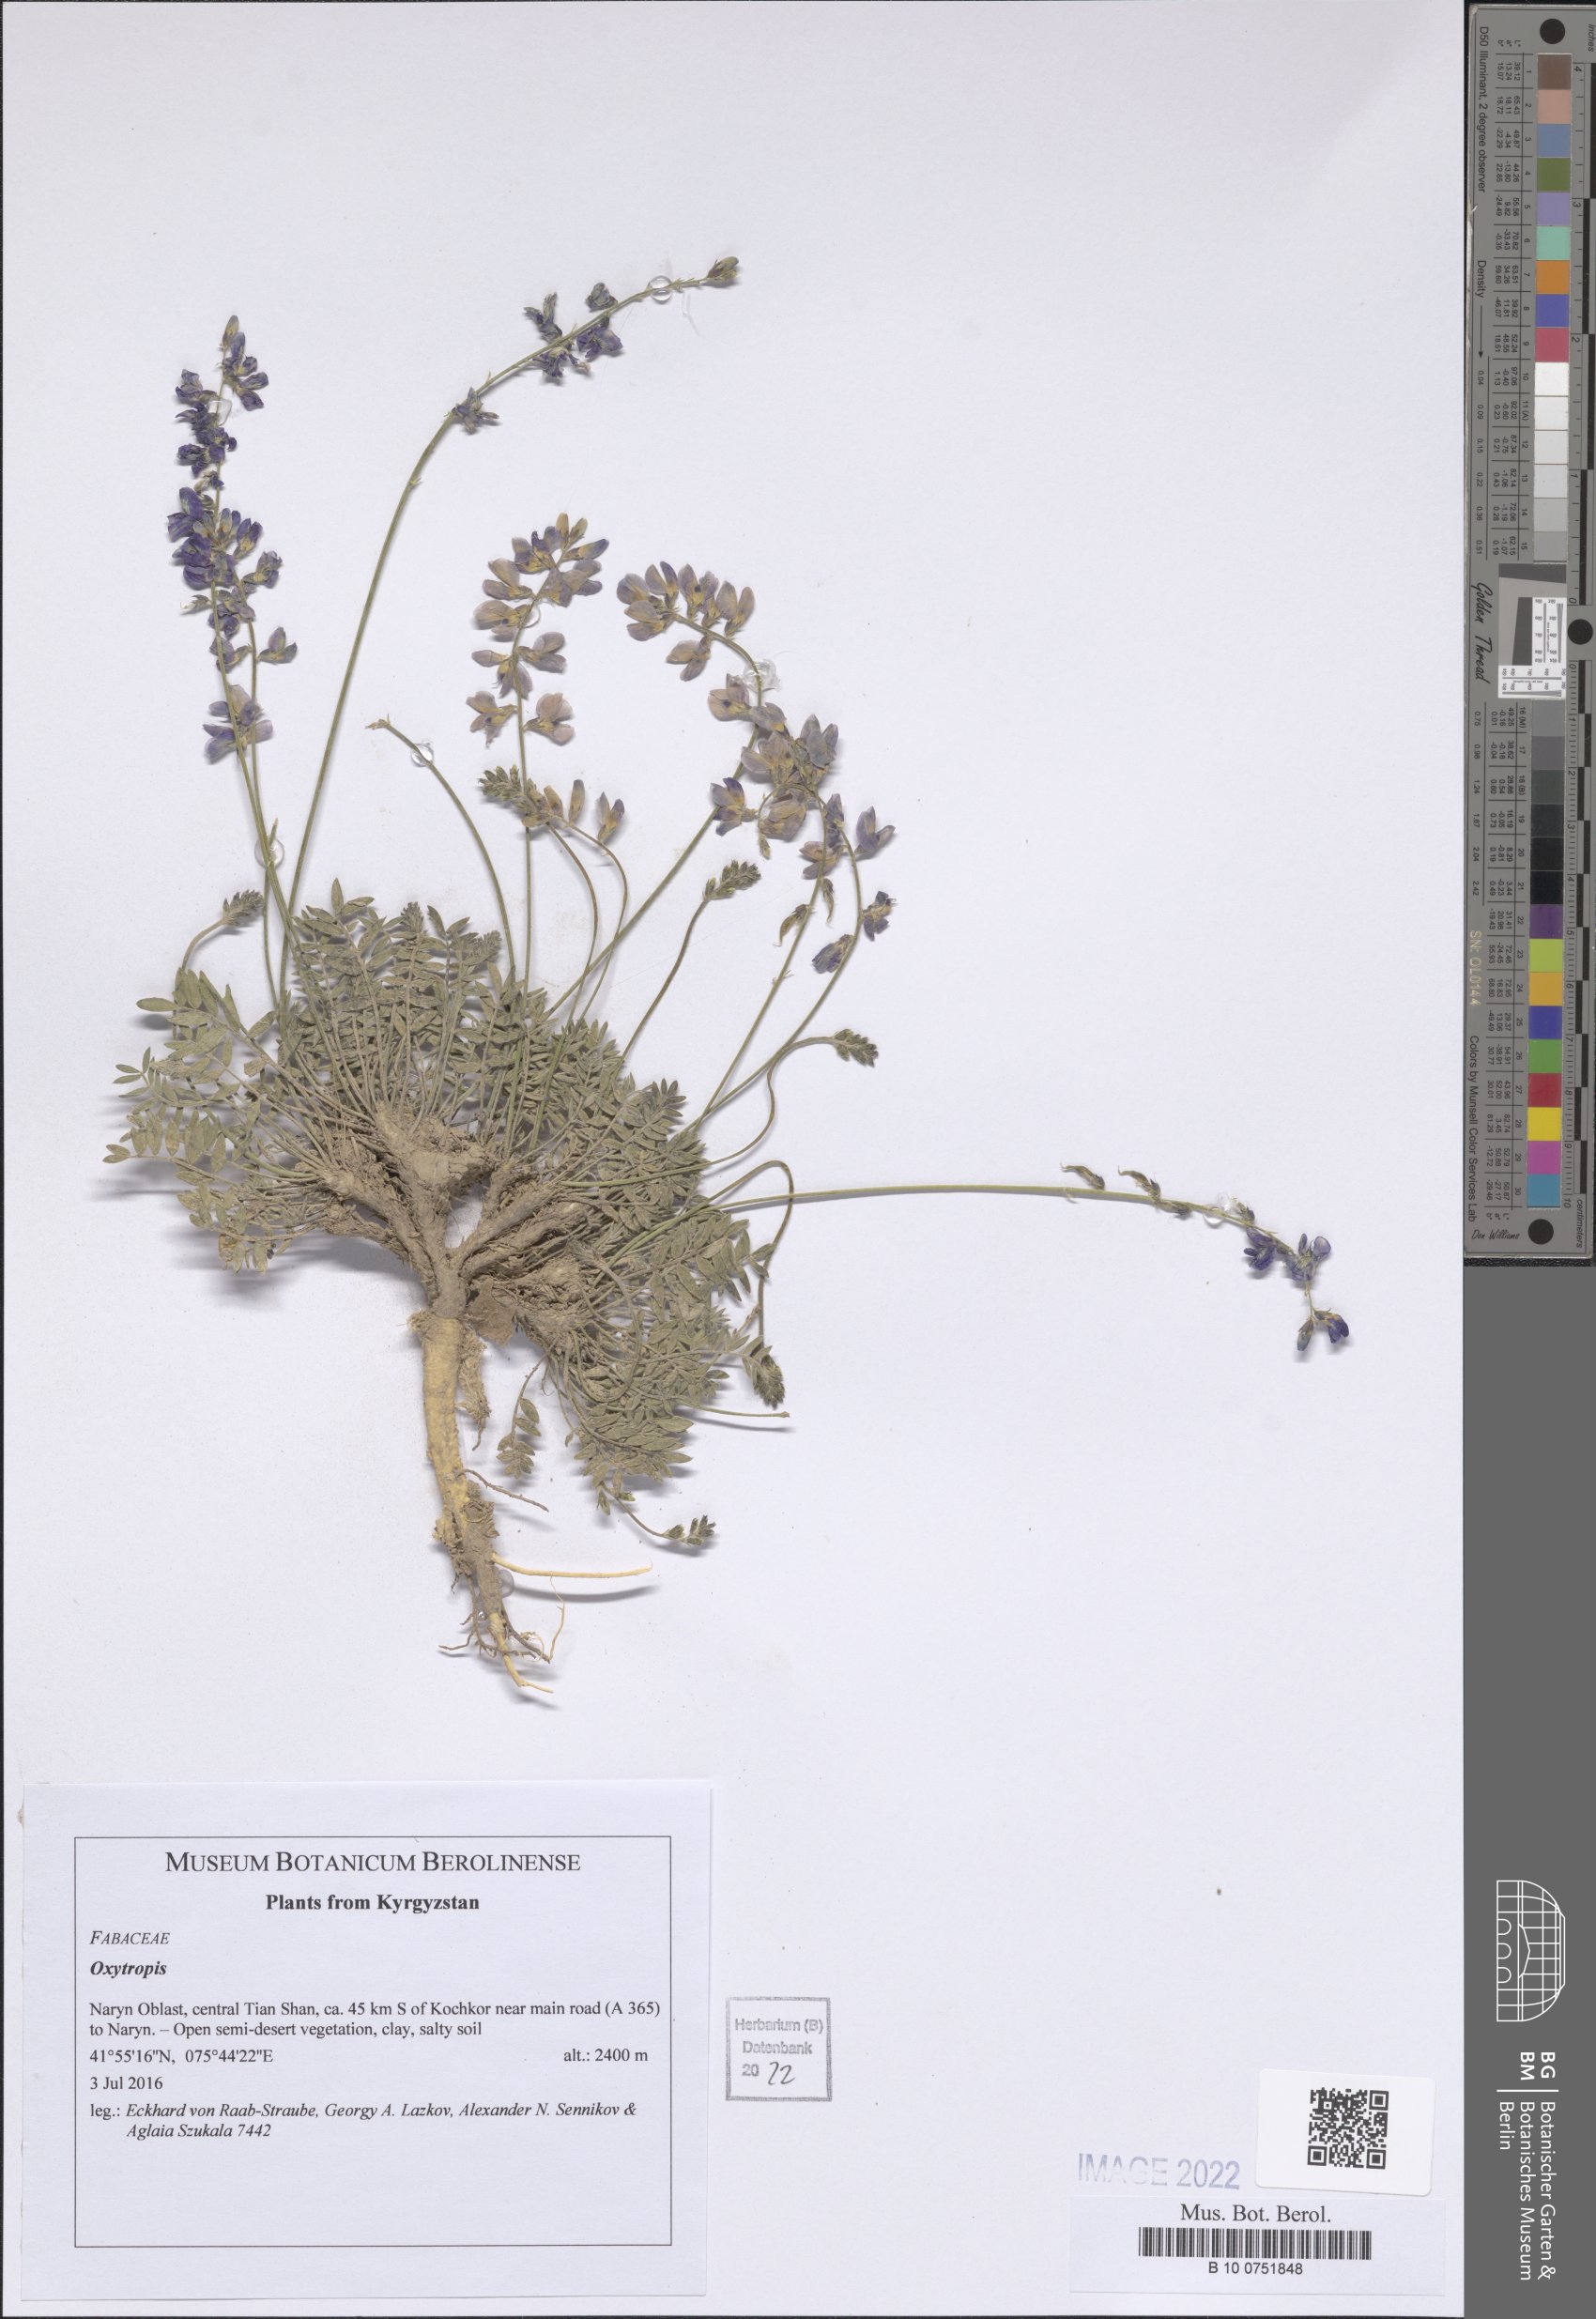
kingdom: Plantae
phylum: Tracheophyta
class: Magnoliopsida
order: Fabales
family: Fabaceae
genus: Oxytropis
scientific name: Oxytropis
